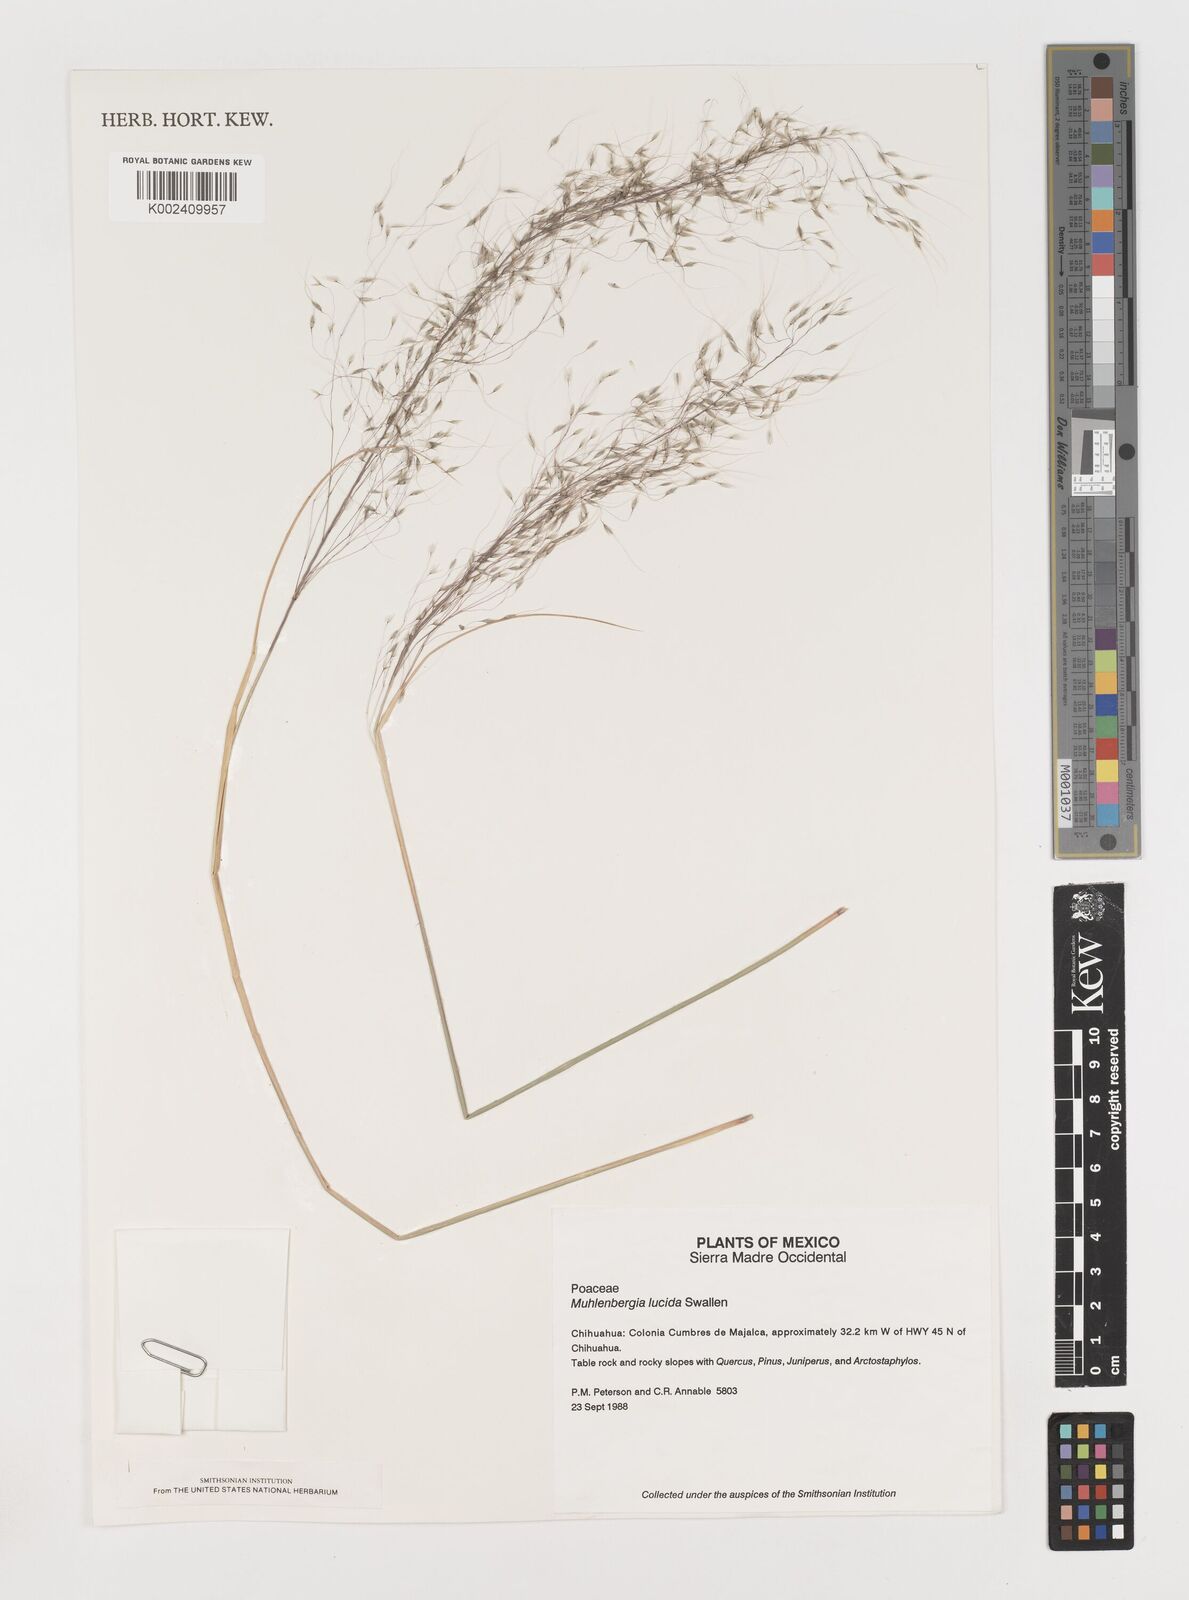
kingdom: Plantae
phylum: Tracheophyta
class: Liliopsida
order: Poales
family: Poaceae
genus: Muhlenbergia
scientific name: Muhlenbergia lucida
